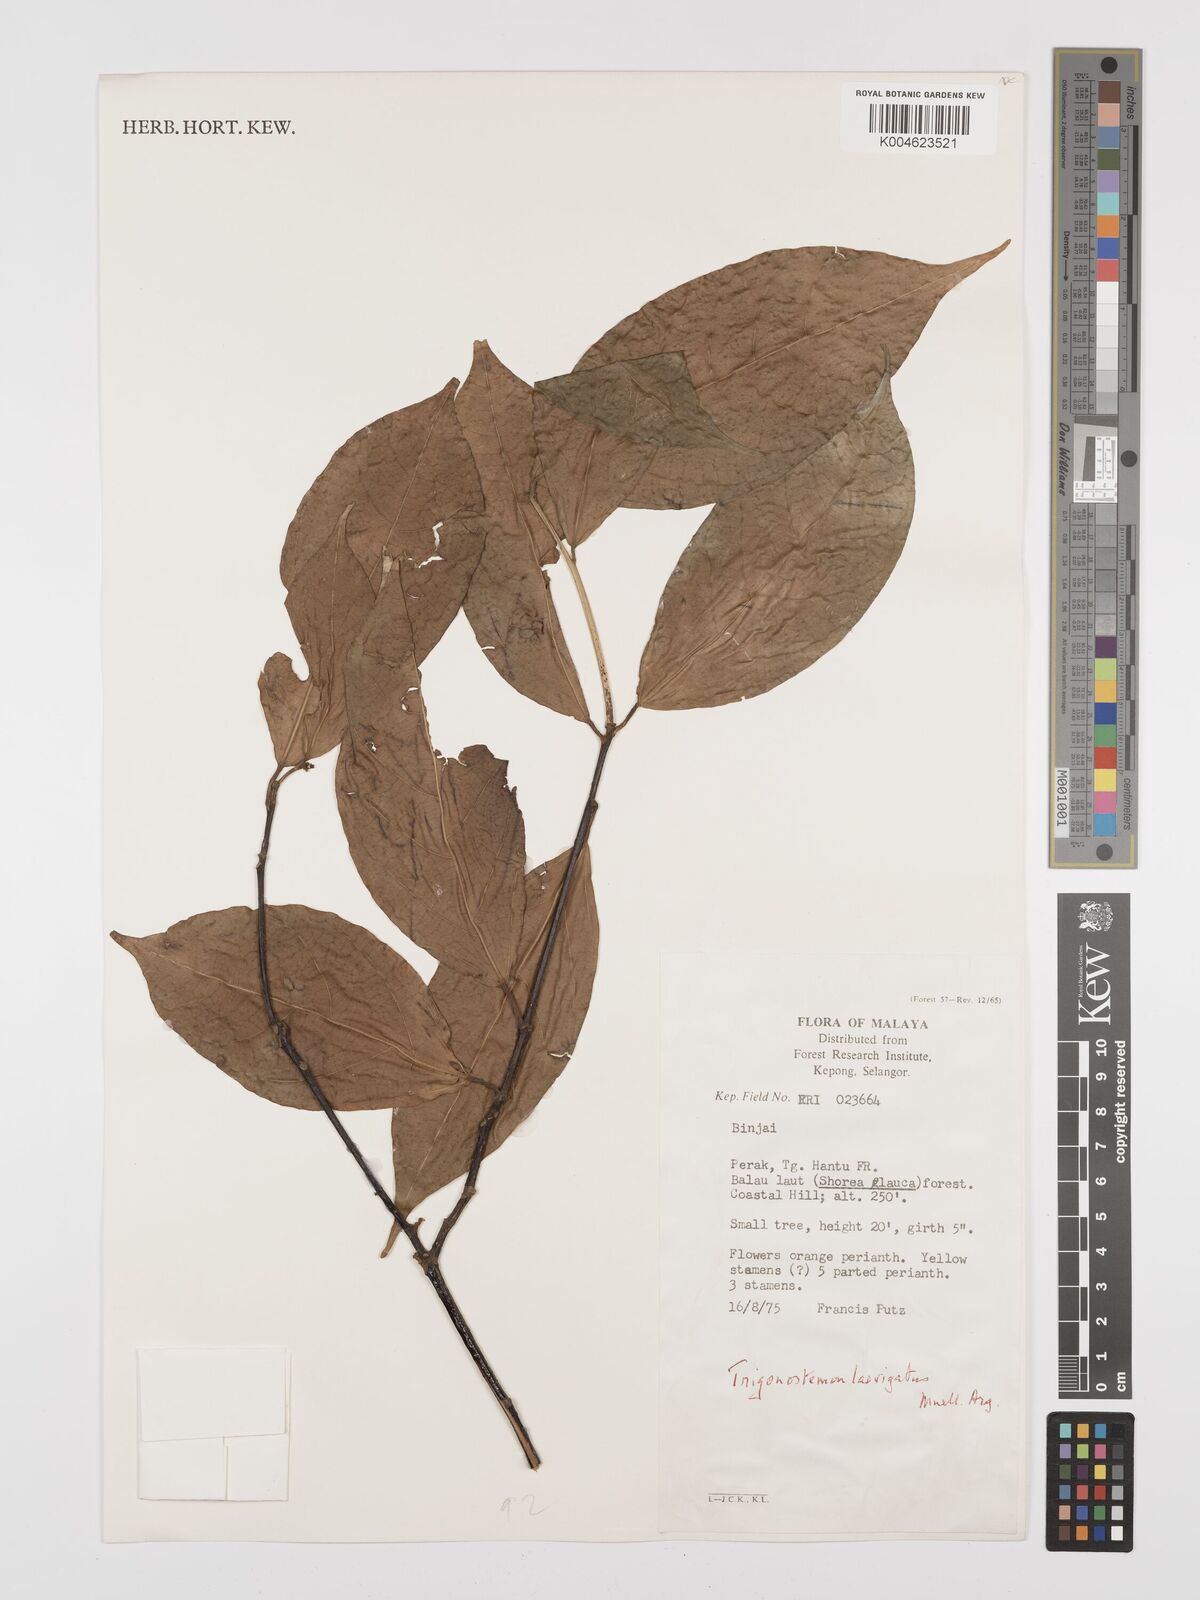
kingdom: Plantae
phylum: Tracheophyta
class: Magnoliopsida
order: Malpighiales
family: Euphorbiaceae
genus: Trigonostemon
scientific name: Trigonostemon laevigatus
